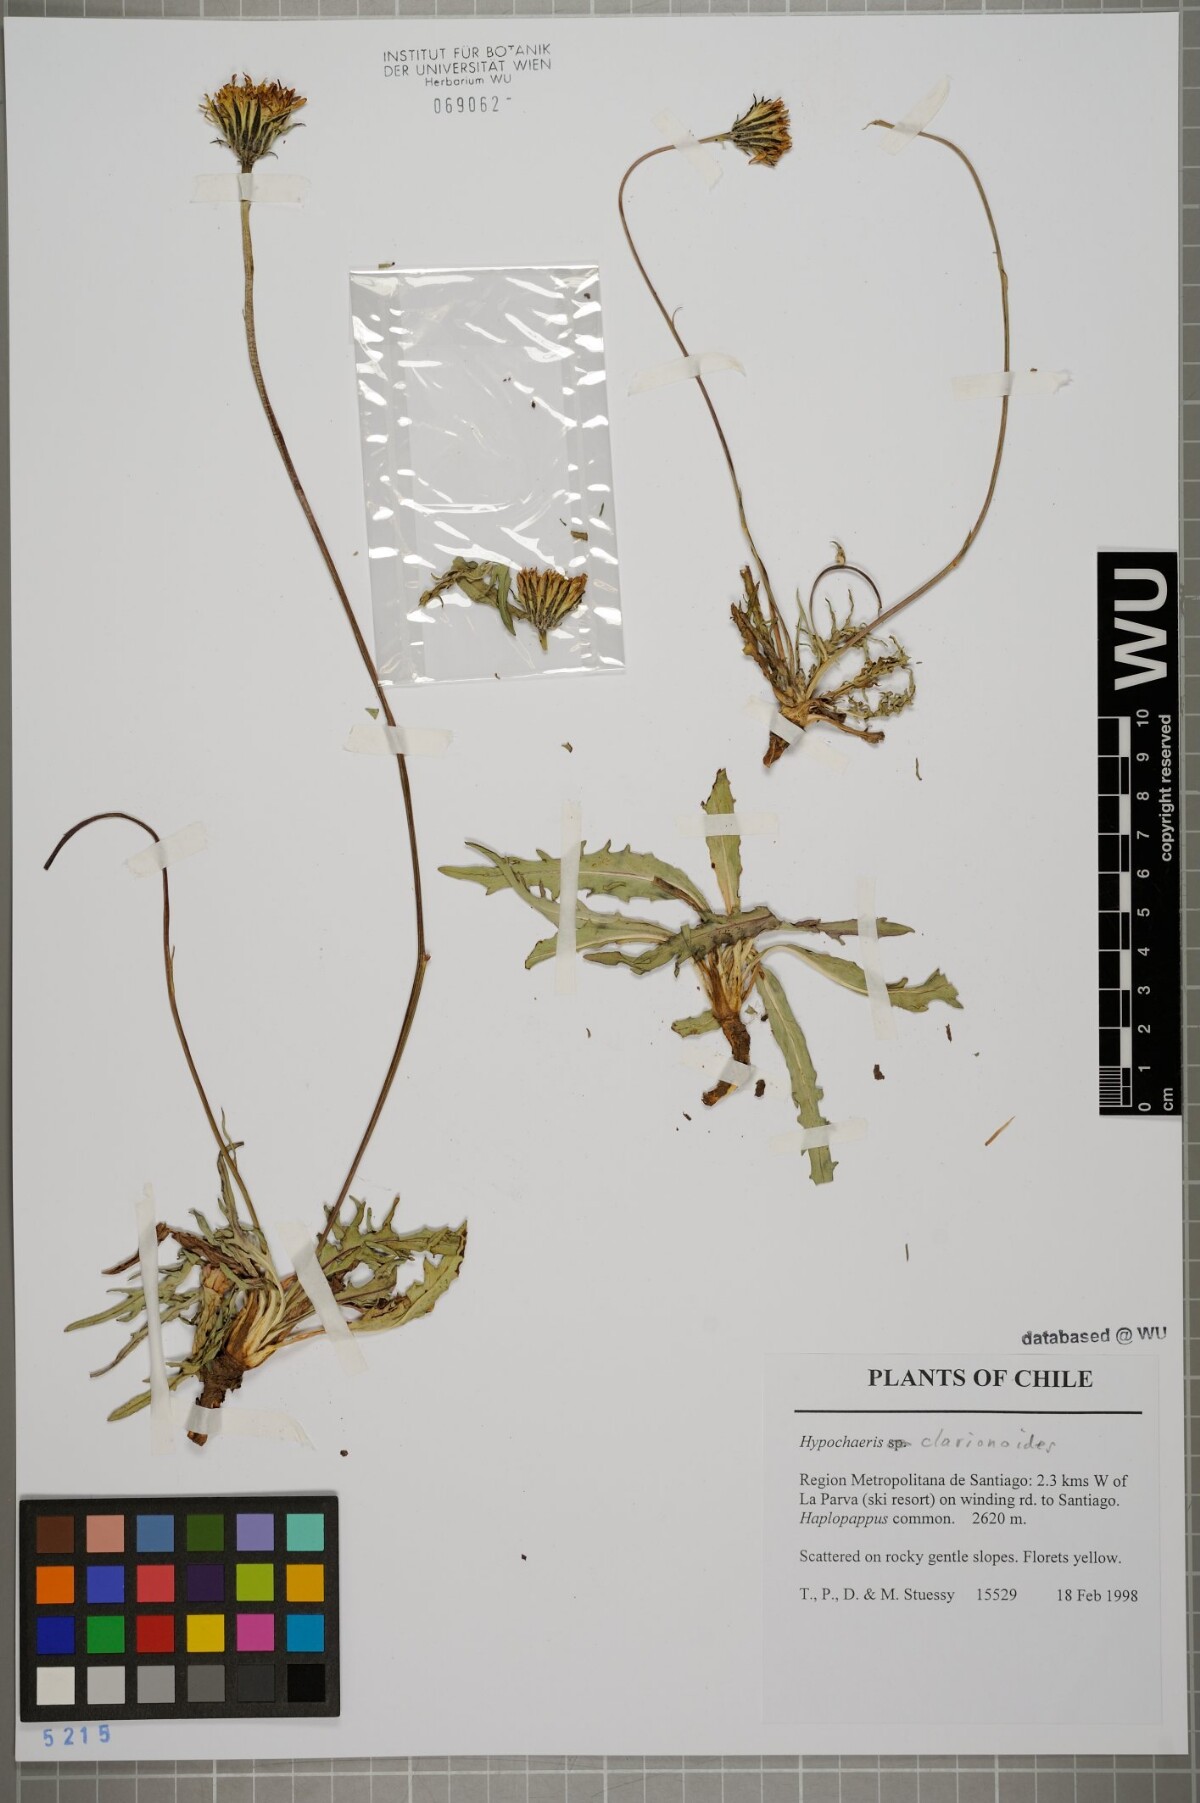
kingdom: Plantae
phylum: Tracheophyta
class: Magnoliopsida
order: Asterales
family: Asteraceae
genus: Hypochaeris
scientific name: Hypochaeris clarionoides
